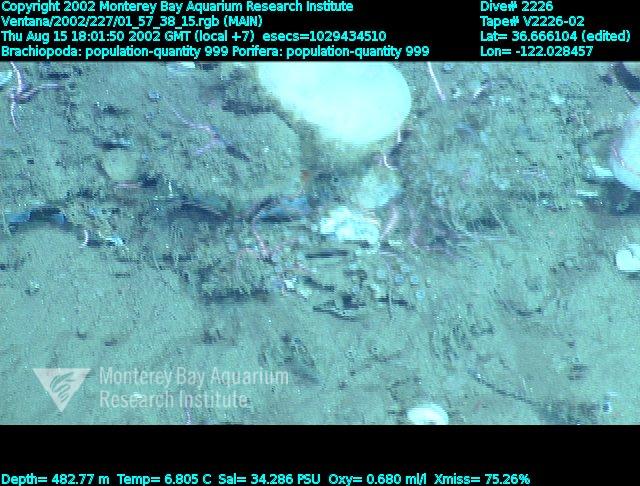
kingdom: Animalia
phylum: Porifera
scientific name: Porifera
